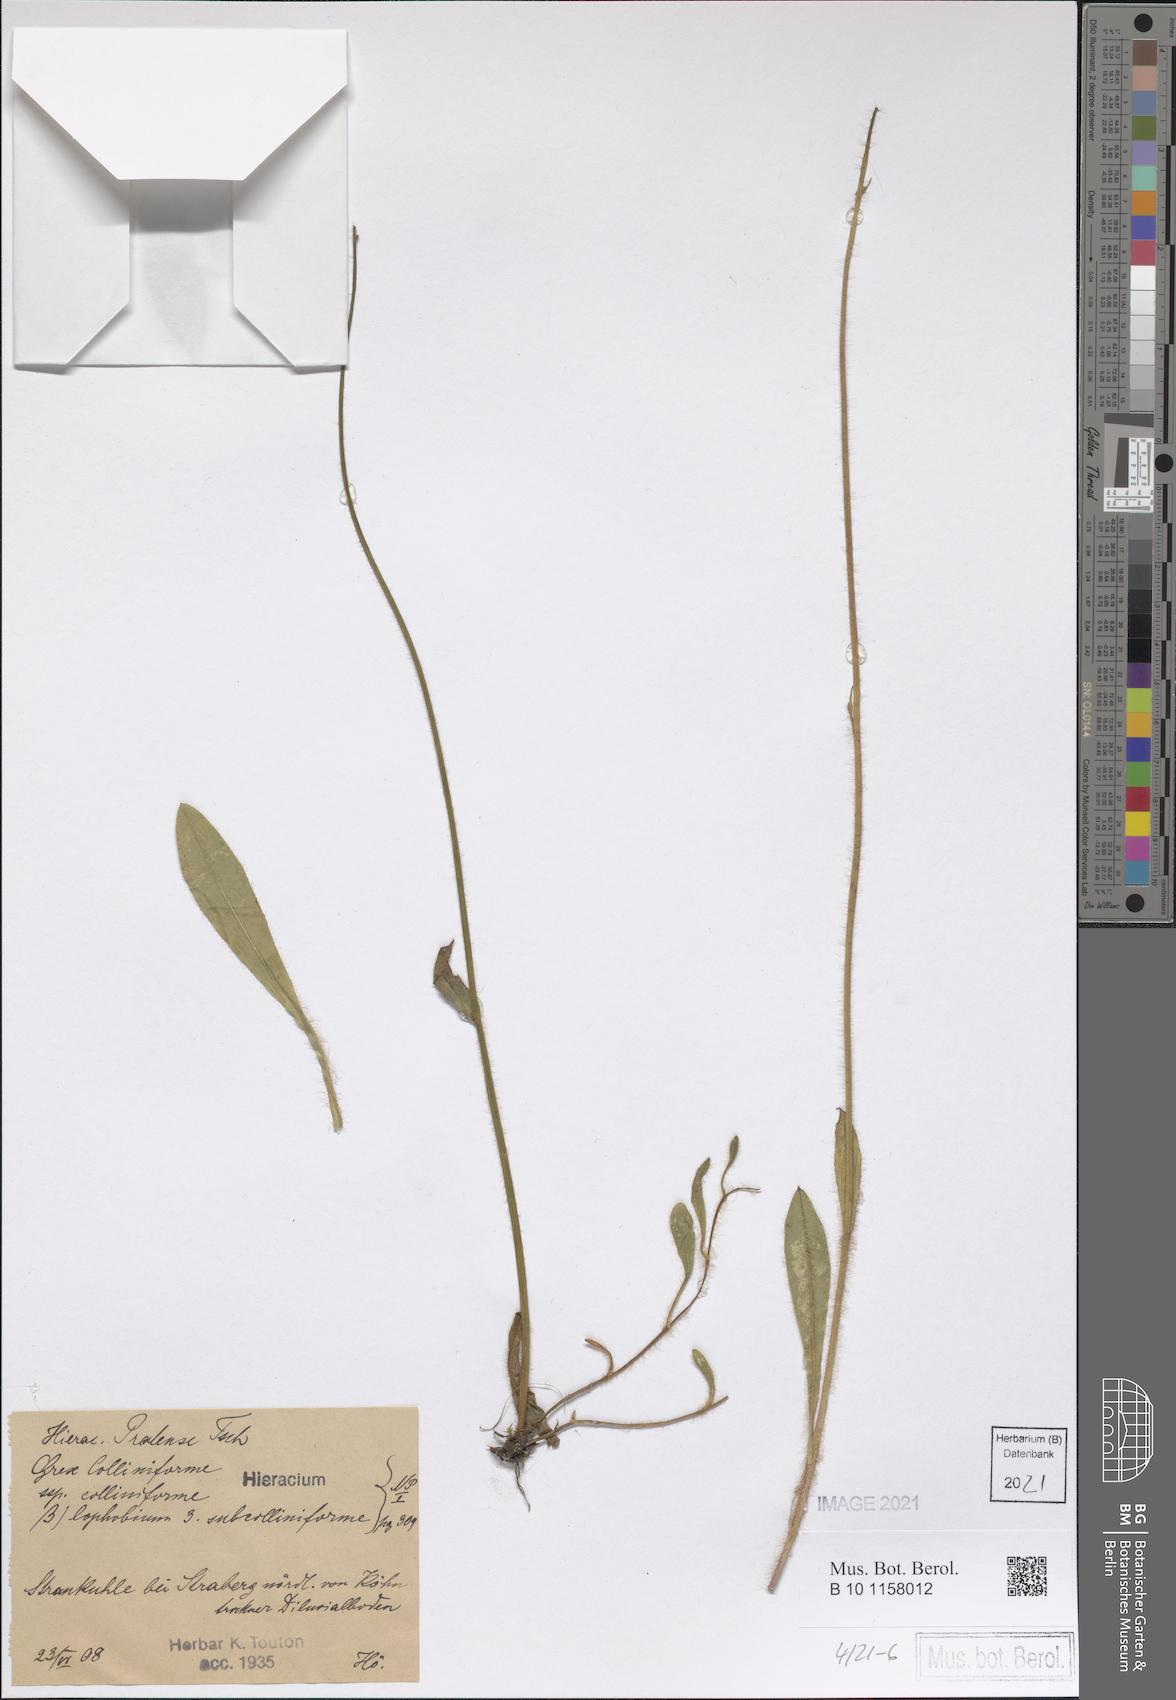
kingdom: Plantae
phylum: Tracheophyta
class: Magnoliopsida
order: Asterales
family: Asteraceae
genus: Pilosella
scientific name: Pilosella caespitosa
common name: Yellow fox-and-cubs
